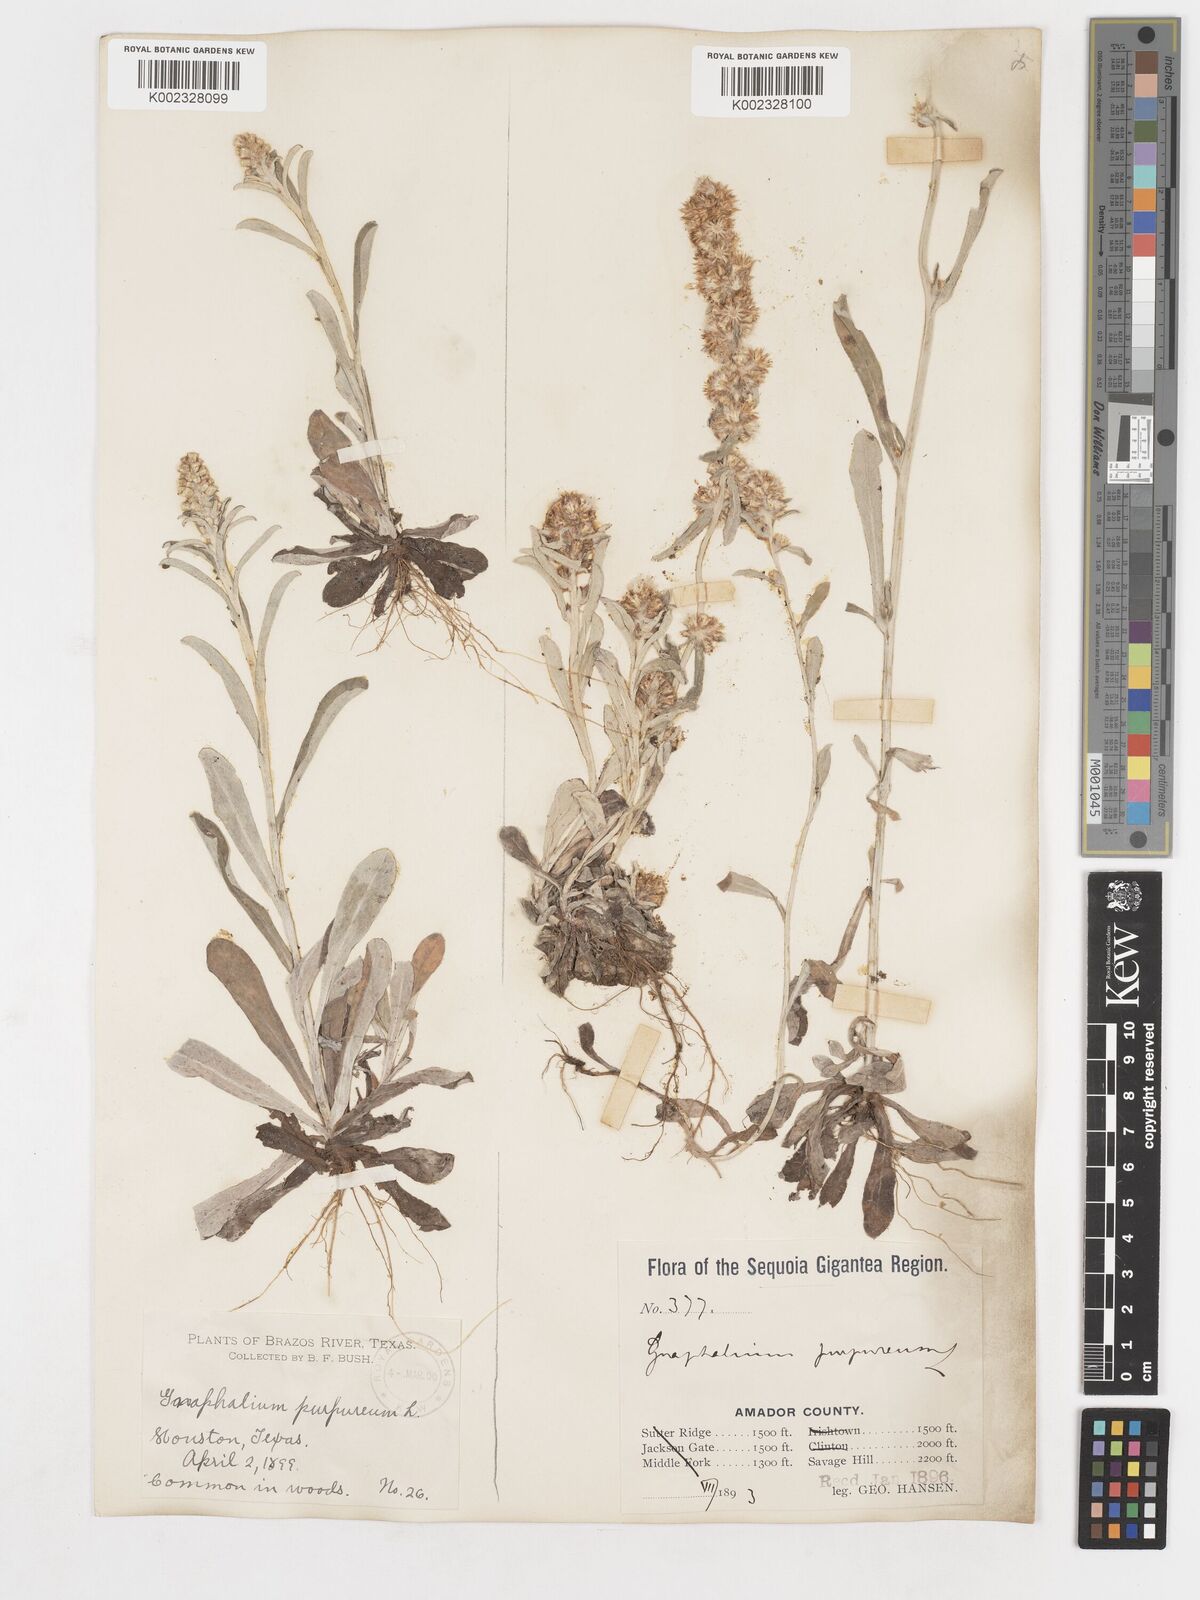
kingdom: Plantae
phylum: Tracheophyta
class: Magnoliopsida
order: Asterales
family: Asteraceae
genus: Gamochaeta
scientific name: Gamochaeta purpurea
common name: Purple cudweed
